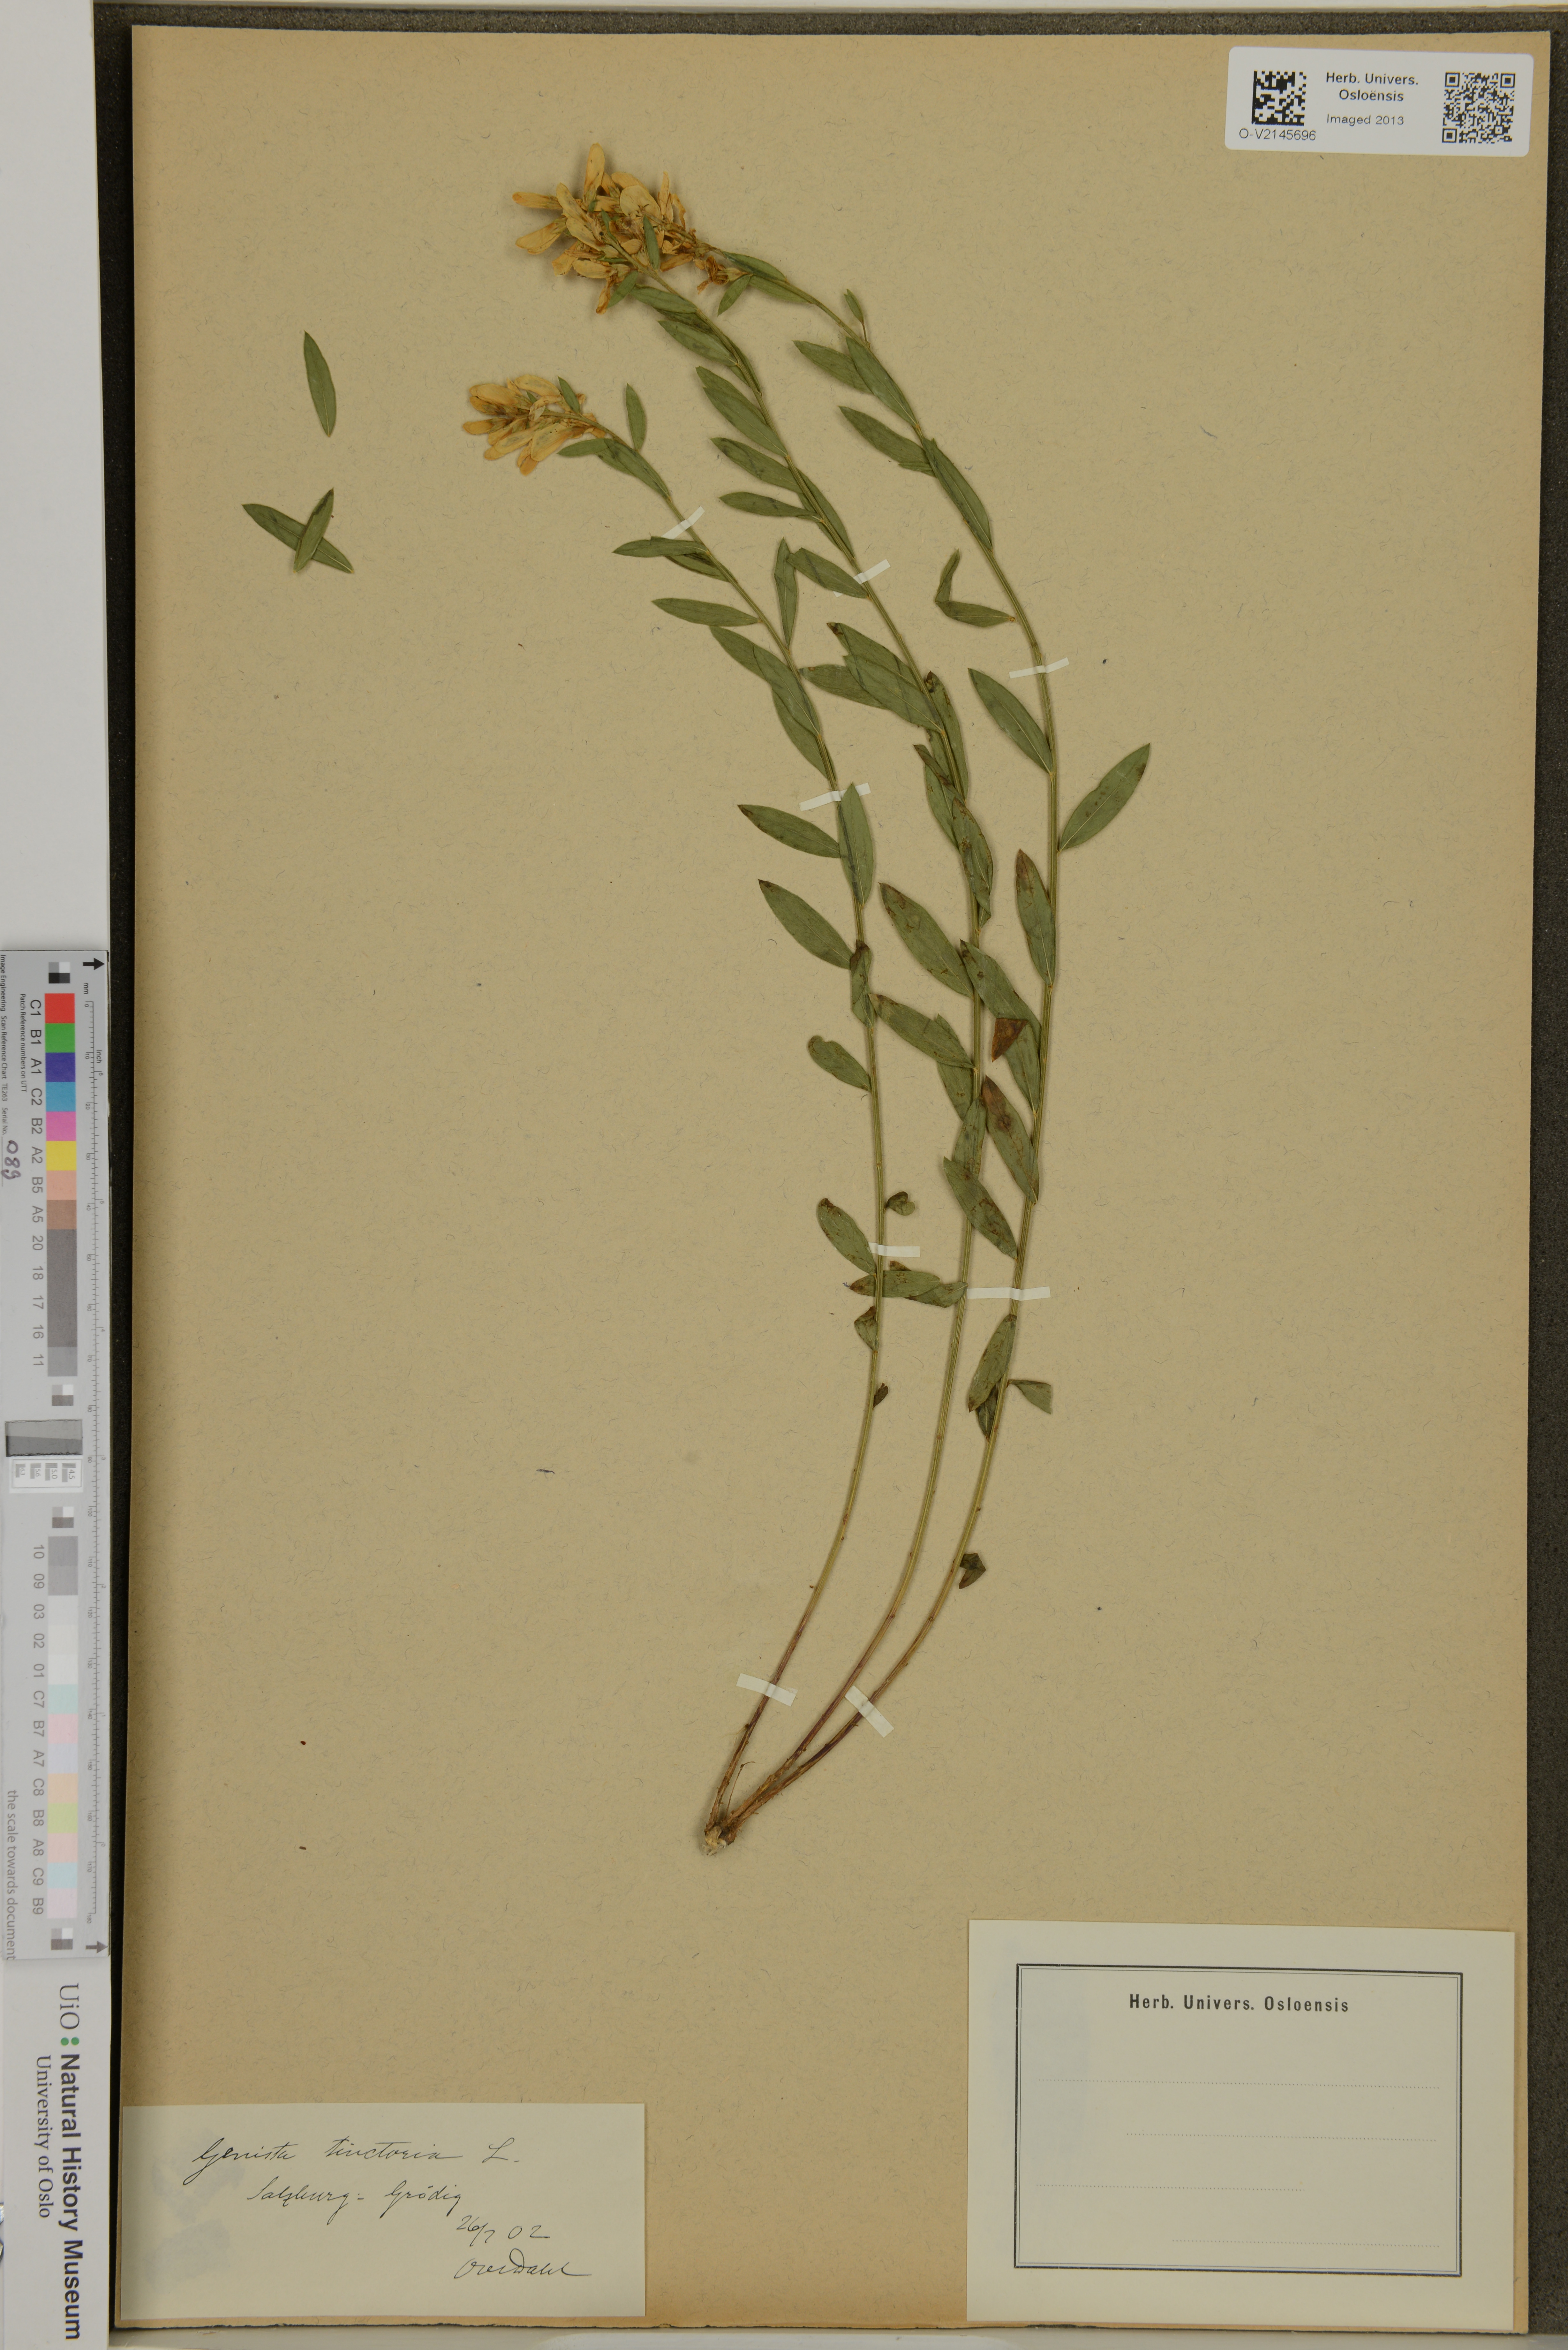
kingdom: Plantae
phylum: Tracheophyta
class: Magnoliopsida
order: Fabales
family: Fabaceae
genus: Genista
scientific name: Genista tinctoria
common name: Dyer's greenweed
